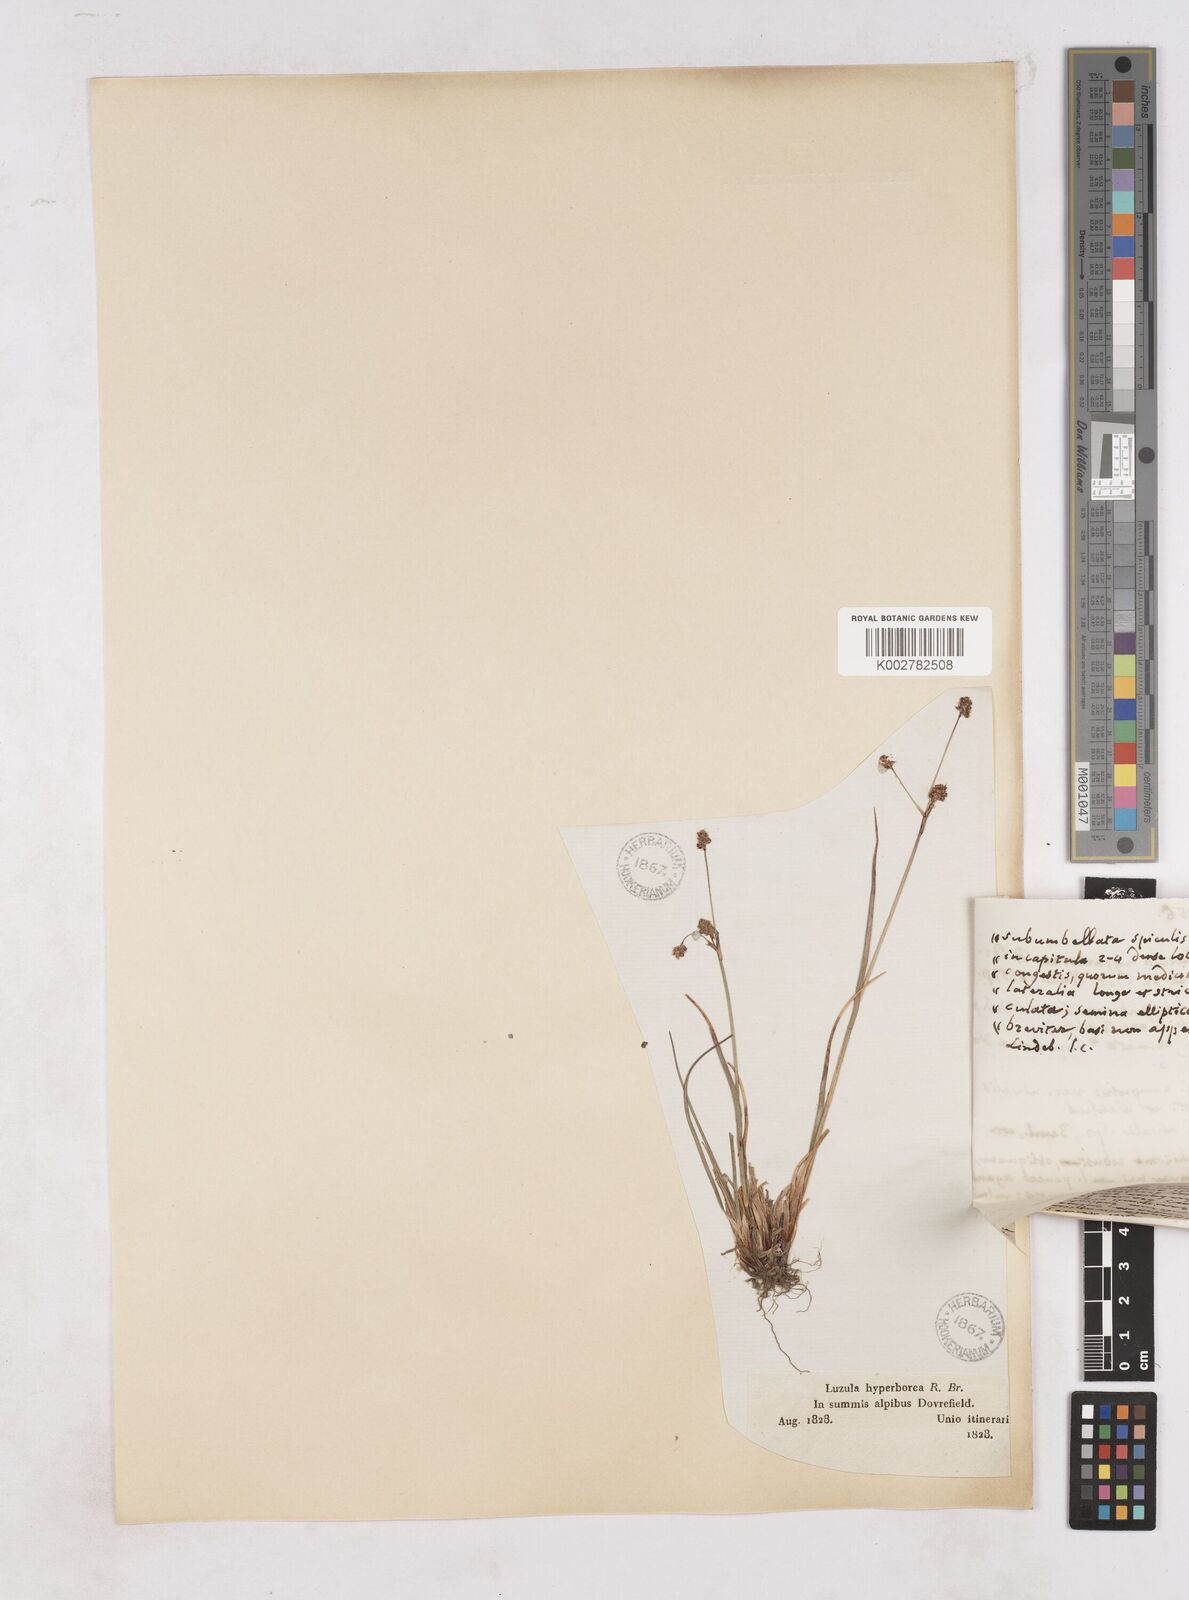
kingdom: Plantae
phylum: Tracheophyta
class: Liliopsida
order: Poales
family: Juncaceae
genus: Luzula
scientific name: Luzula arcuata
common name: Curved wood-rush
